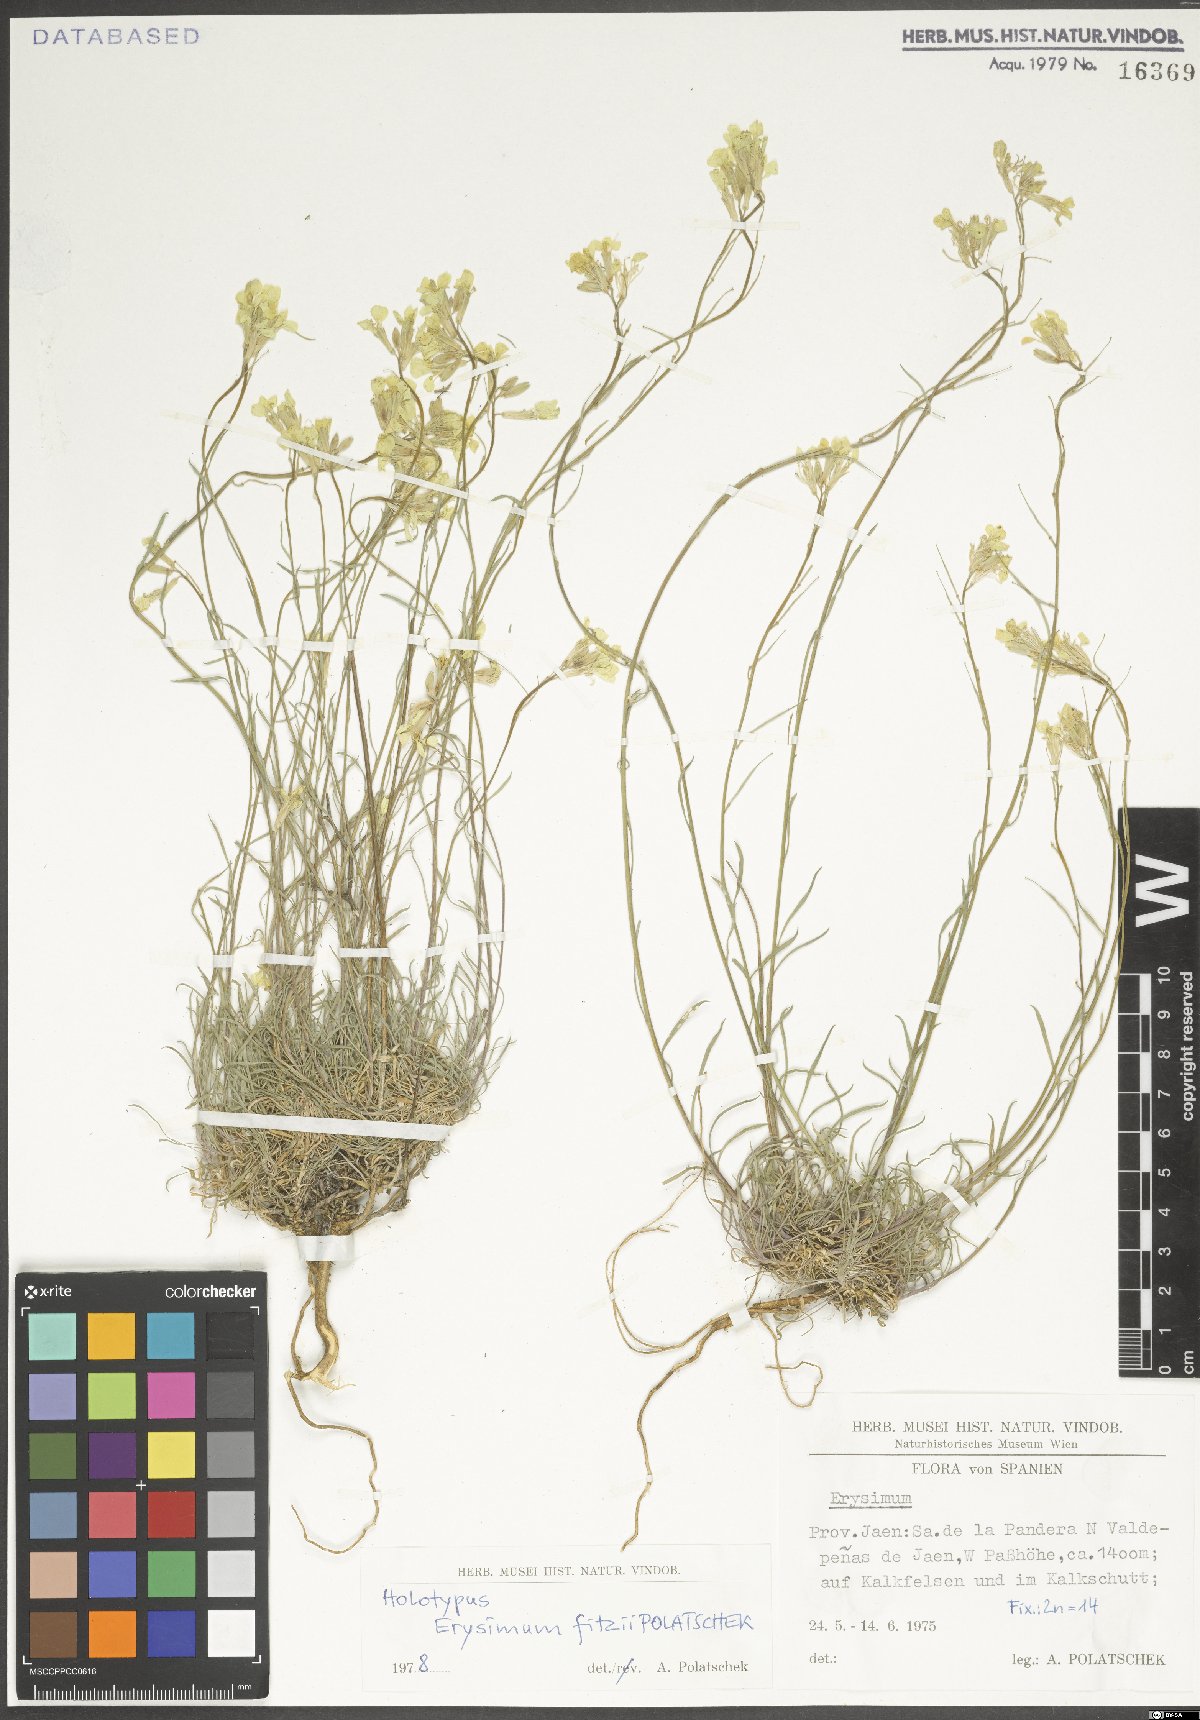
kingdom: Plantae
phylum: Tracheophyta
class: Magnoliopsida
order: Brassicales
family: Brassicaceae
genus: Erysimum
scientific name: Erysimum nevadense
